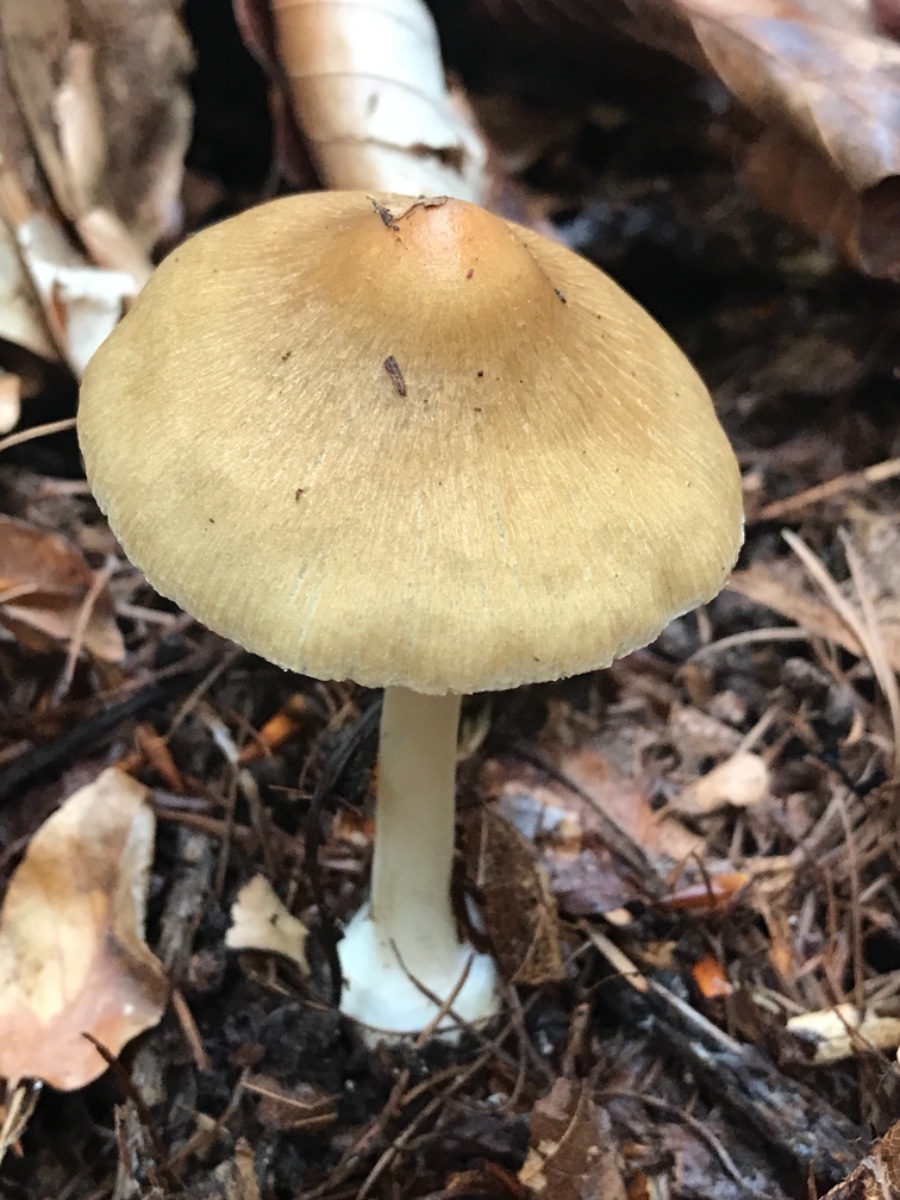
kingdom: Fungi
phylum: Basidiomycota
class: Agaricomycetes
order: Agaricales
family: Inocybaceae
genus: Inocybe
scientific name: Inocybe
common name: trævlhat
